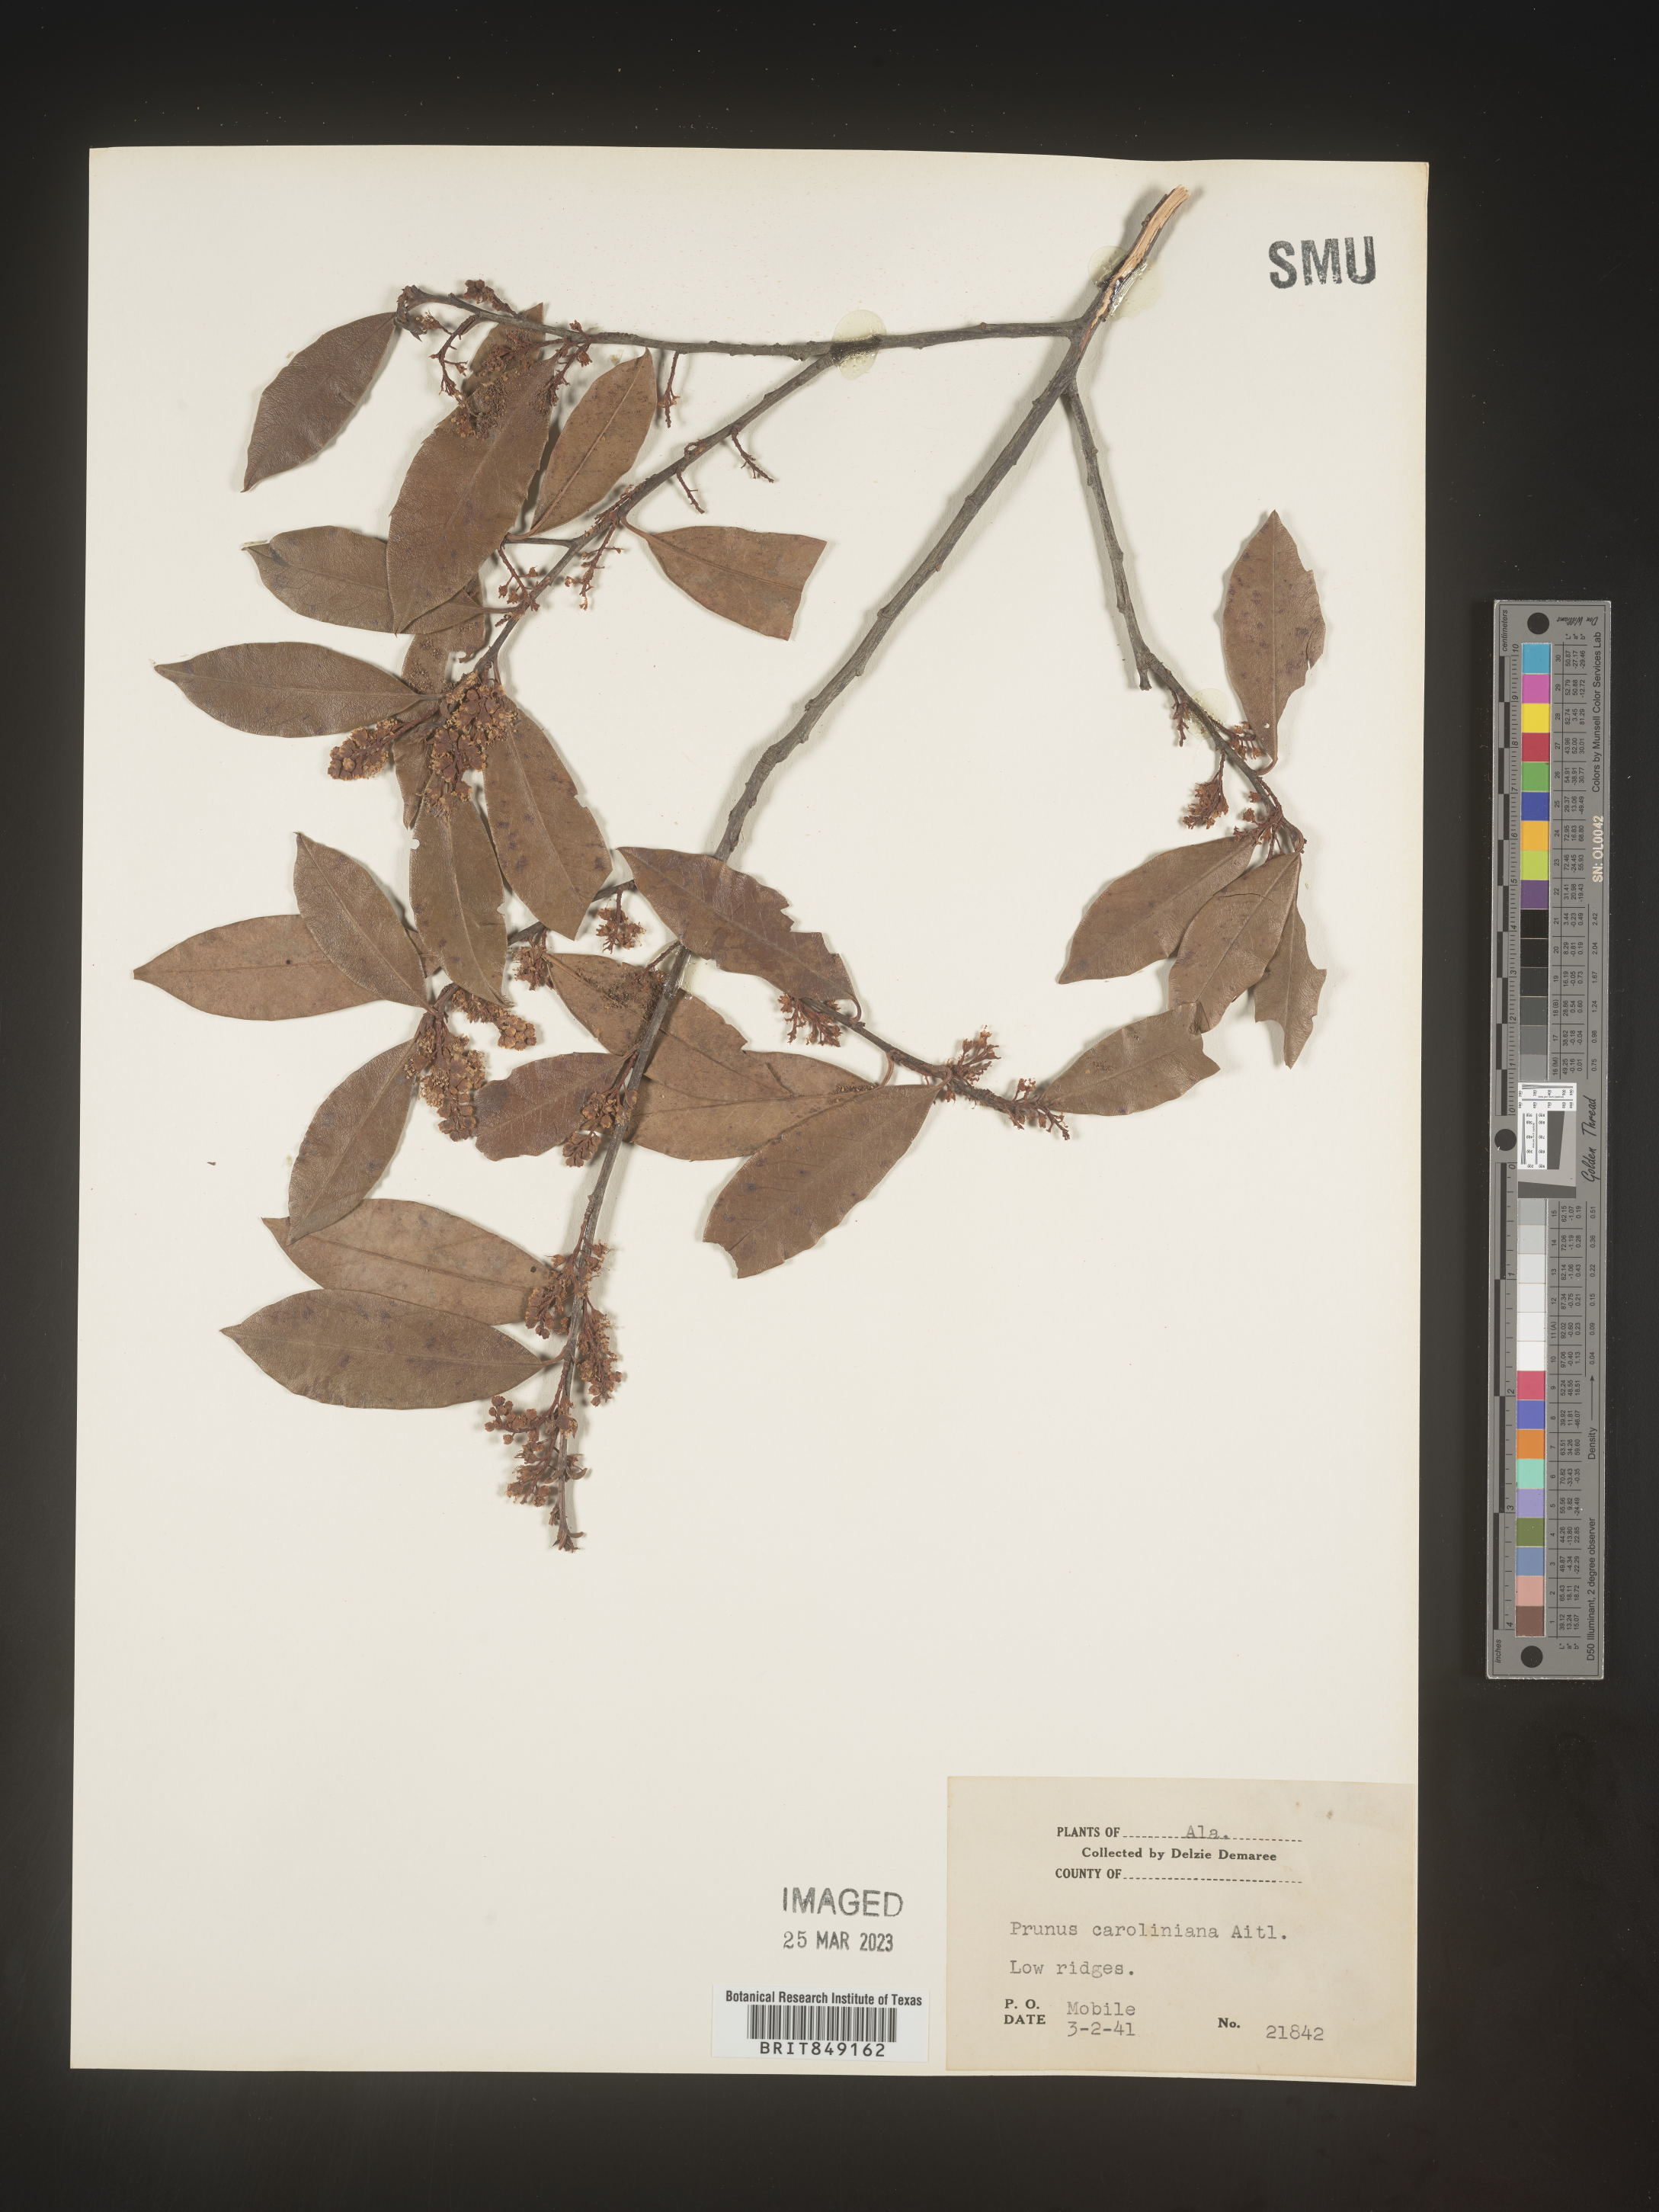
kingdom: Plantae
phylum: Tracheophyta
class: Magnoliopsida
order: Rosales
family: Rosaceae
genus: Prunus
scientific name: Prunus caroliniana
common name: Carolina laurel cherry
